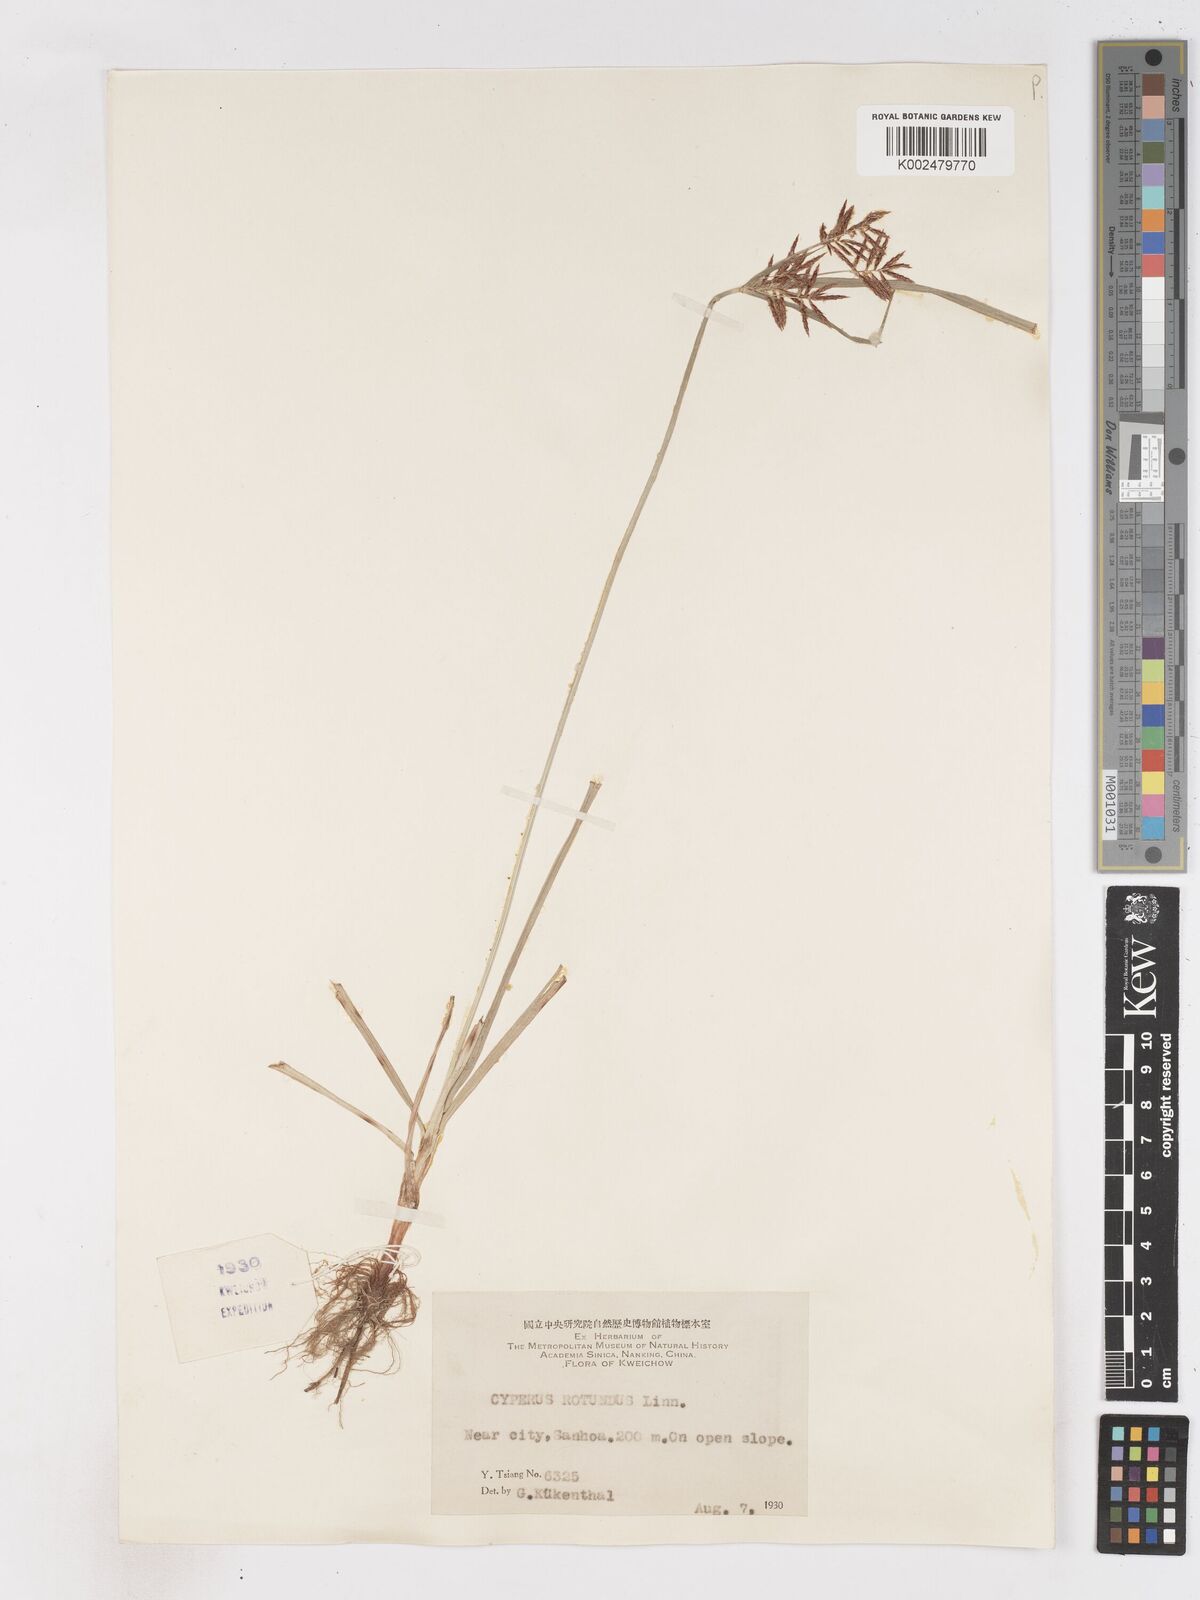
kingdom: Plantae
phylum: Tracheophyta
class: Liliopsida
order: Poales
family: Cyperaceae
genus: Cyperus
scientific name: Cyperus rotundus
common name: Nutgrass
